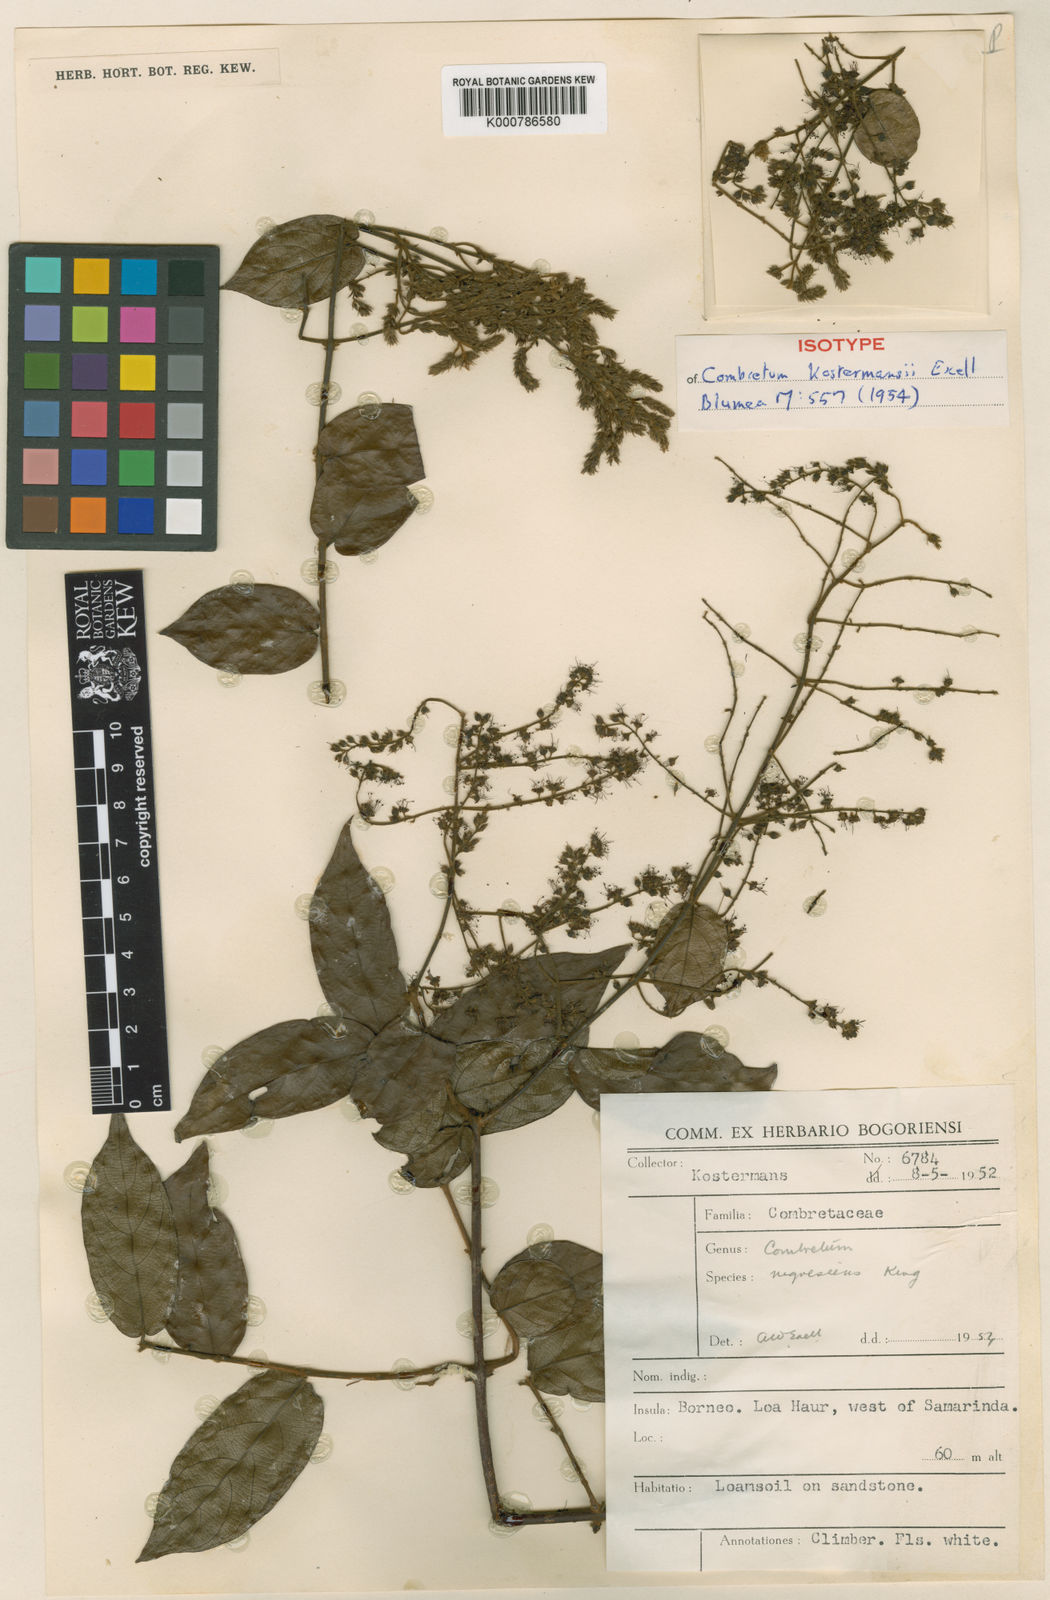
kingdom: Plantae
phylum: Tracheophyta
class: Magnoliopsida
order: Myrtales
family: Combretaceae
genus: Combretum
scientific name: Combretum kostermansii
